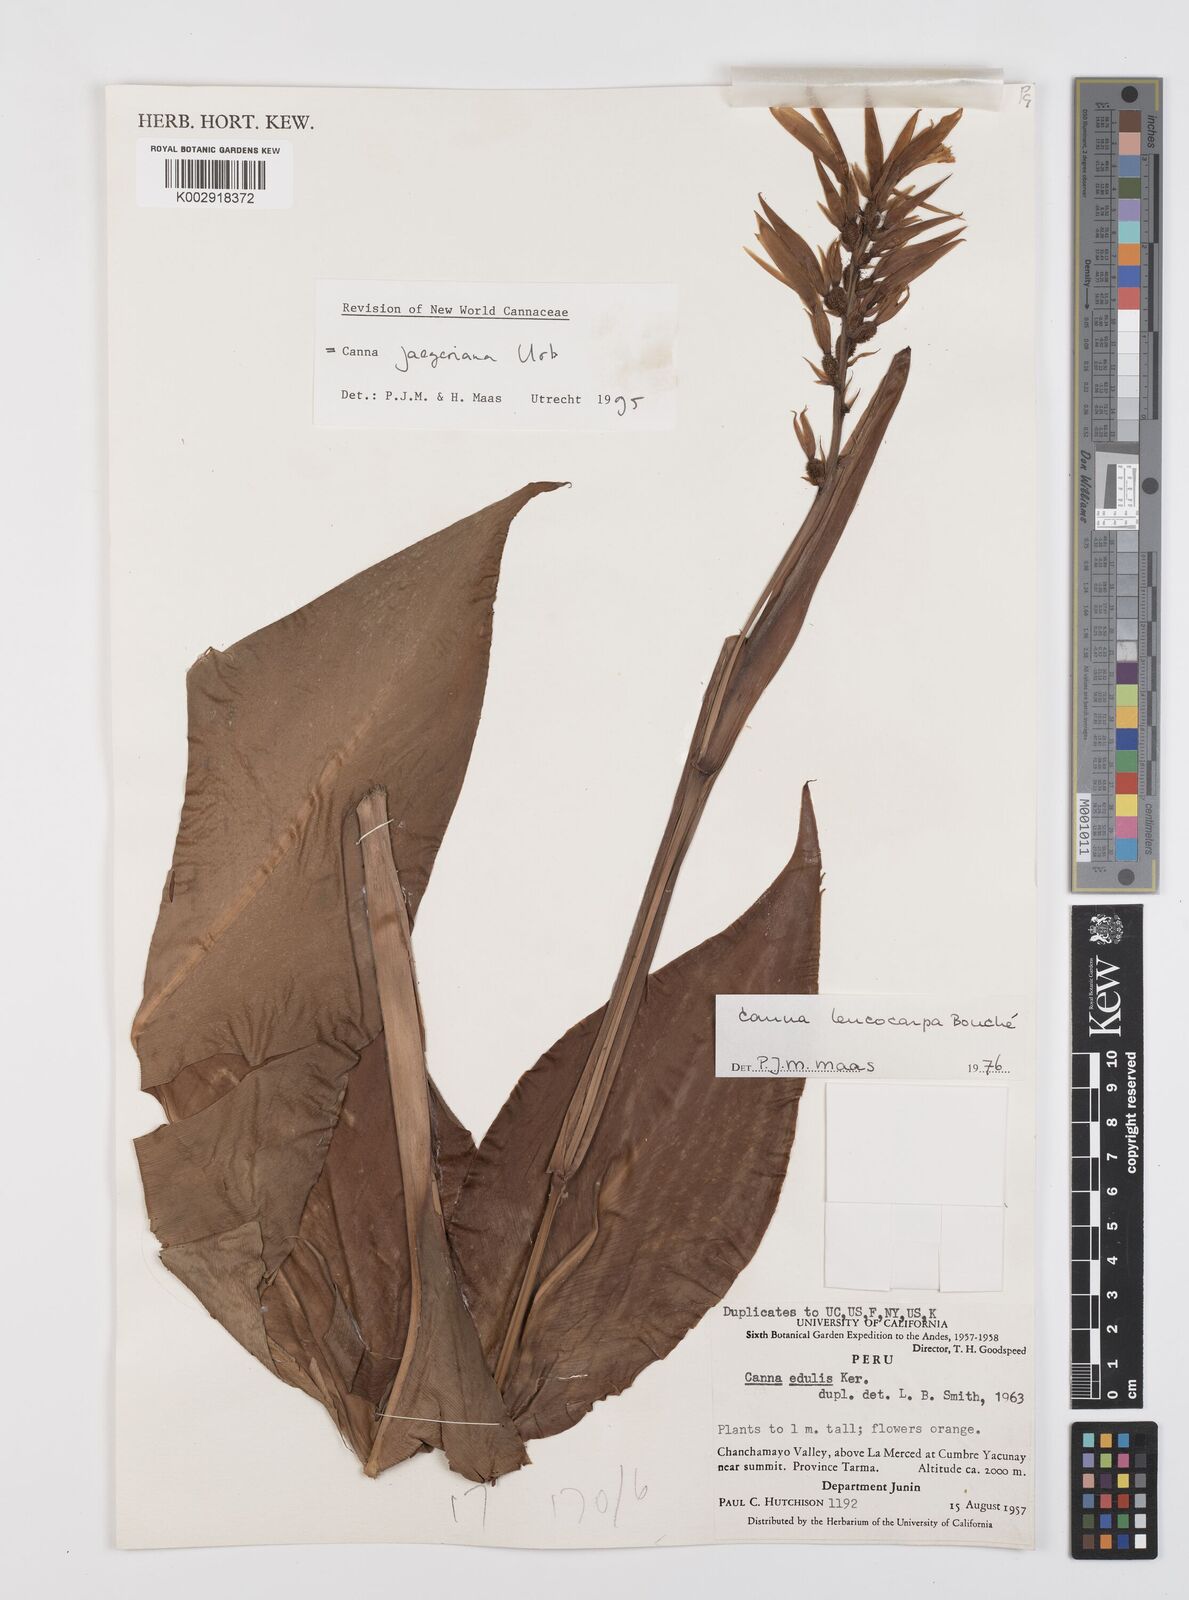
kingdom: Plantae
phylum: Tracheophyta
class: Liliopsida
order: Zingiberales
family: Cannaceae
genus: Canna
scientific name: Canna jaegeriana
